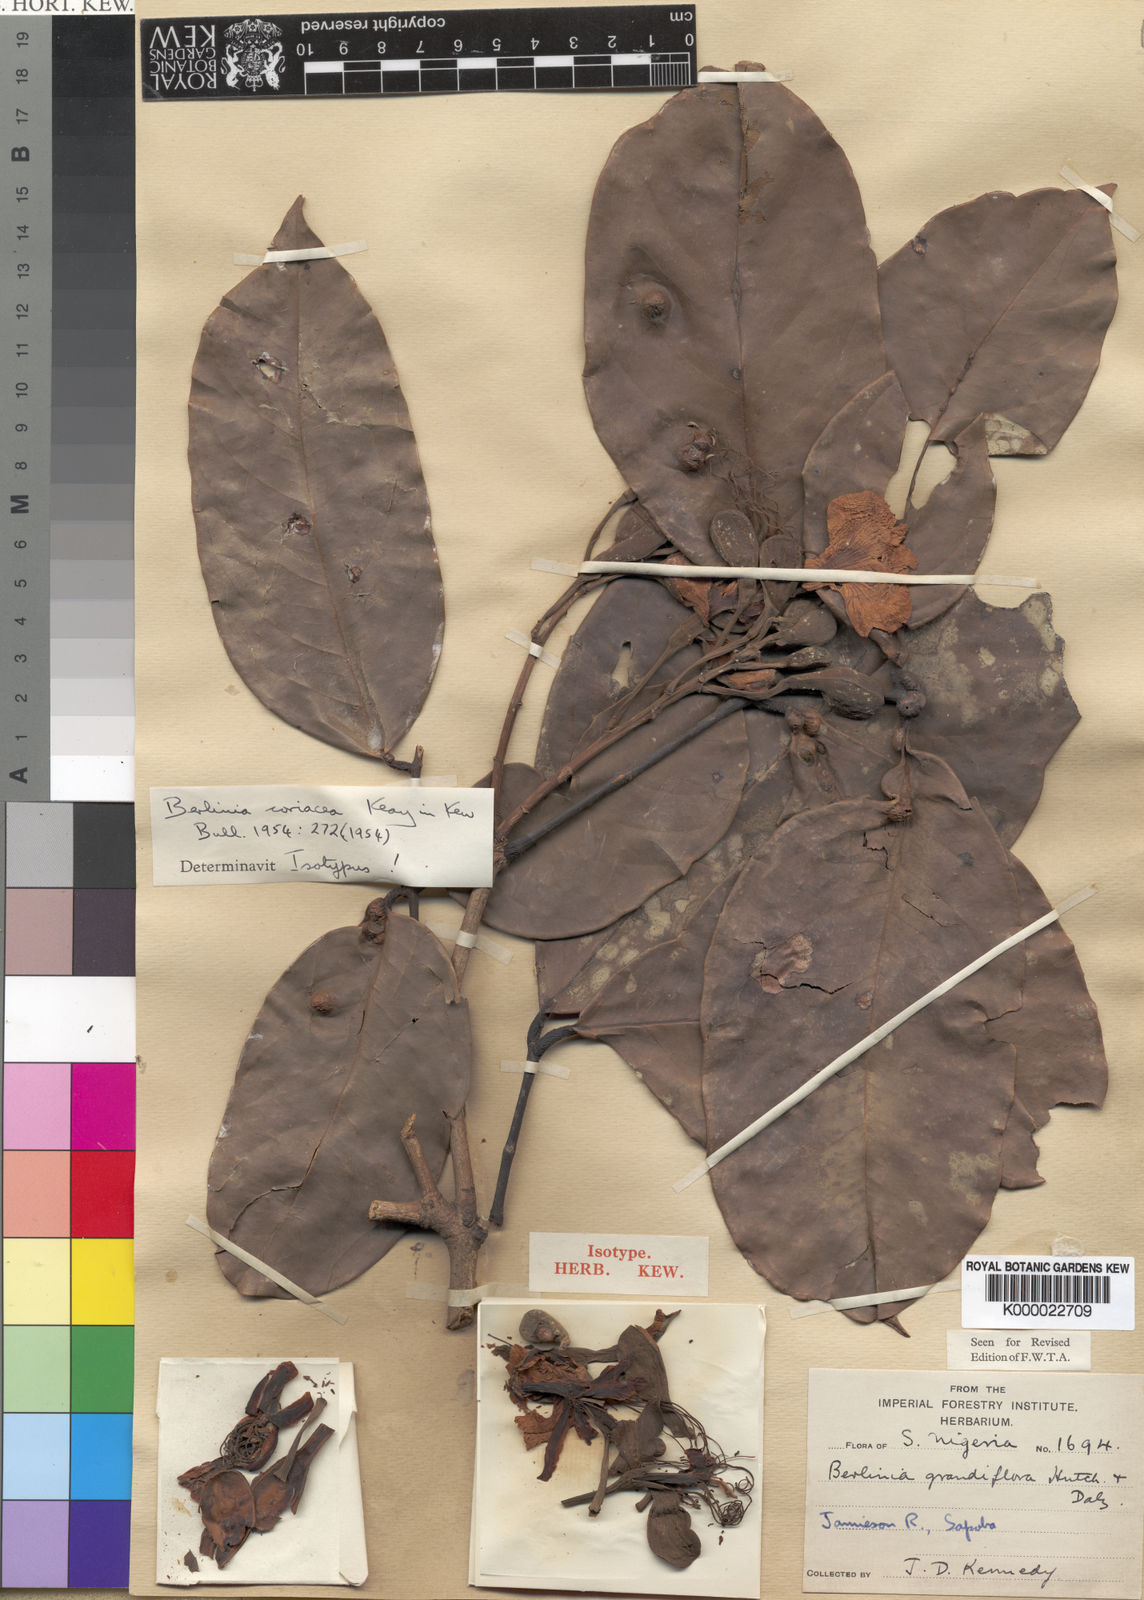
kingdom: Plantae
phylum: Tracheophyta
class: Magnoliopsida
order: Fabales
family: Fabaceae
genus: Berlinia
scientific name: Berlinia coriacea
